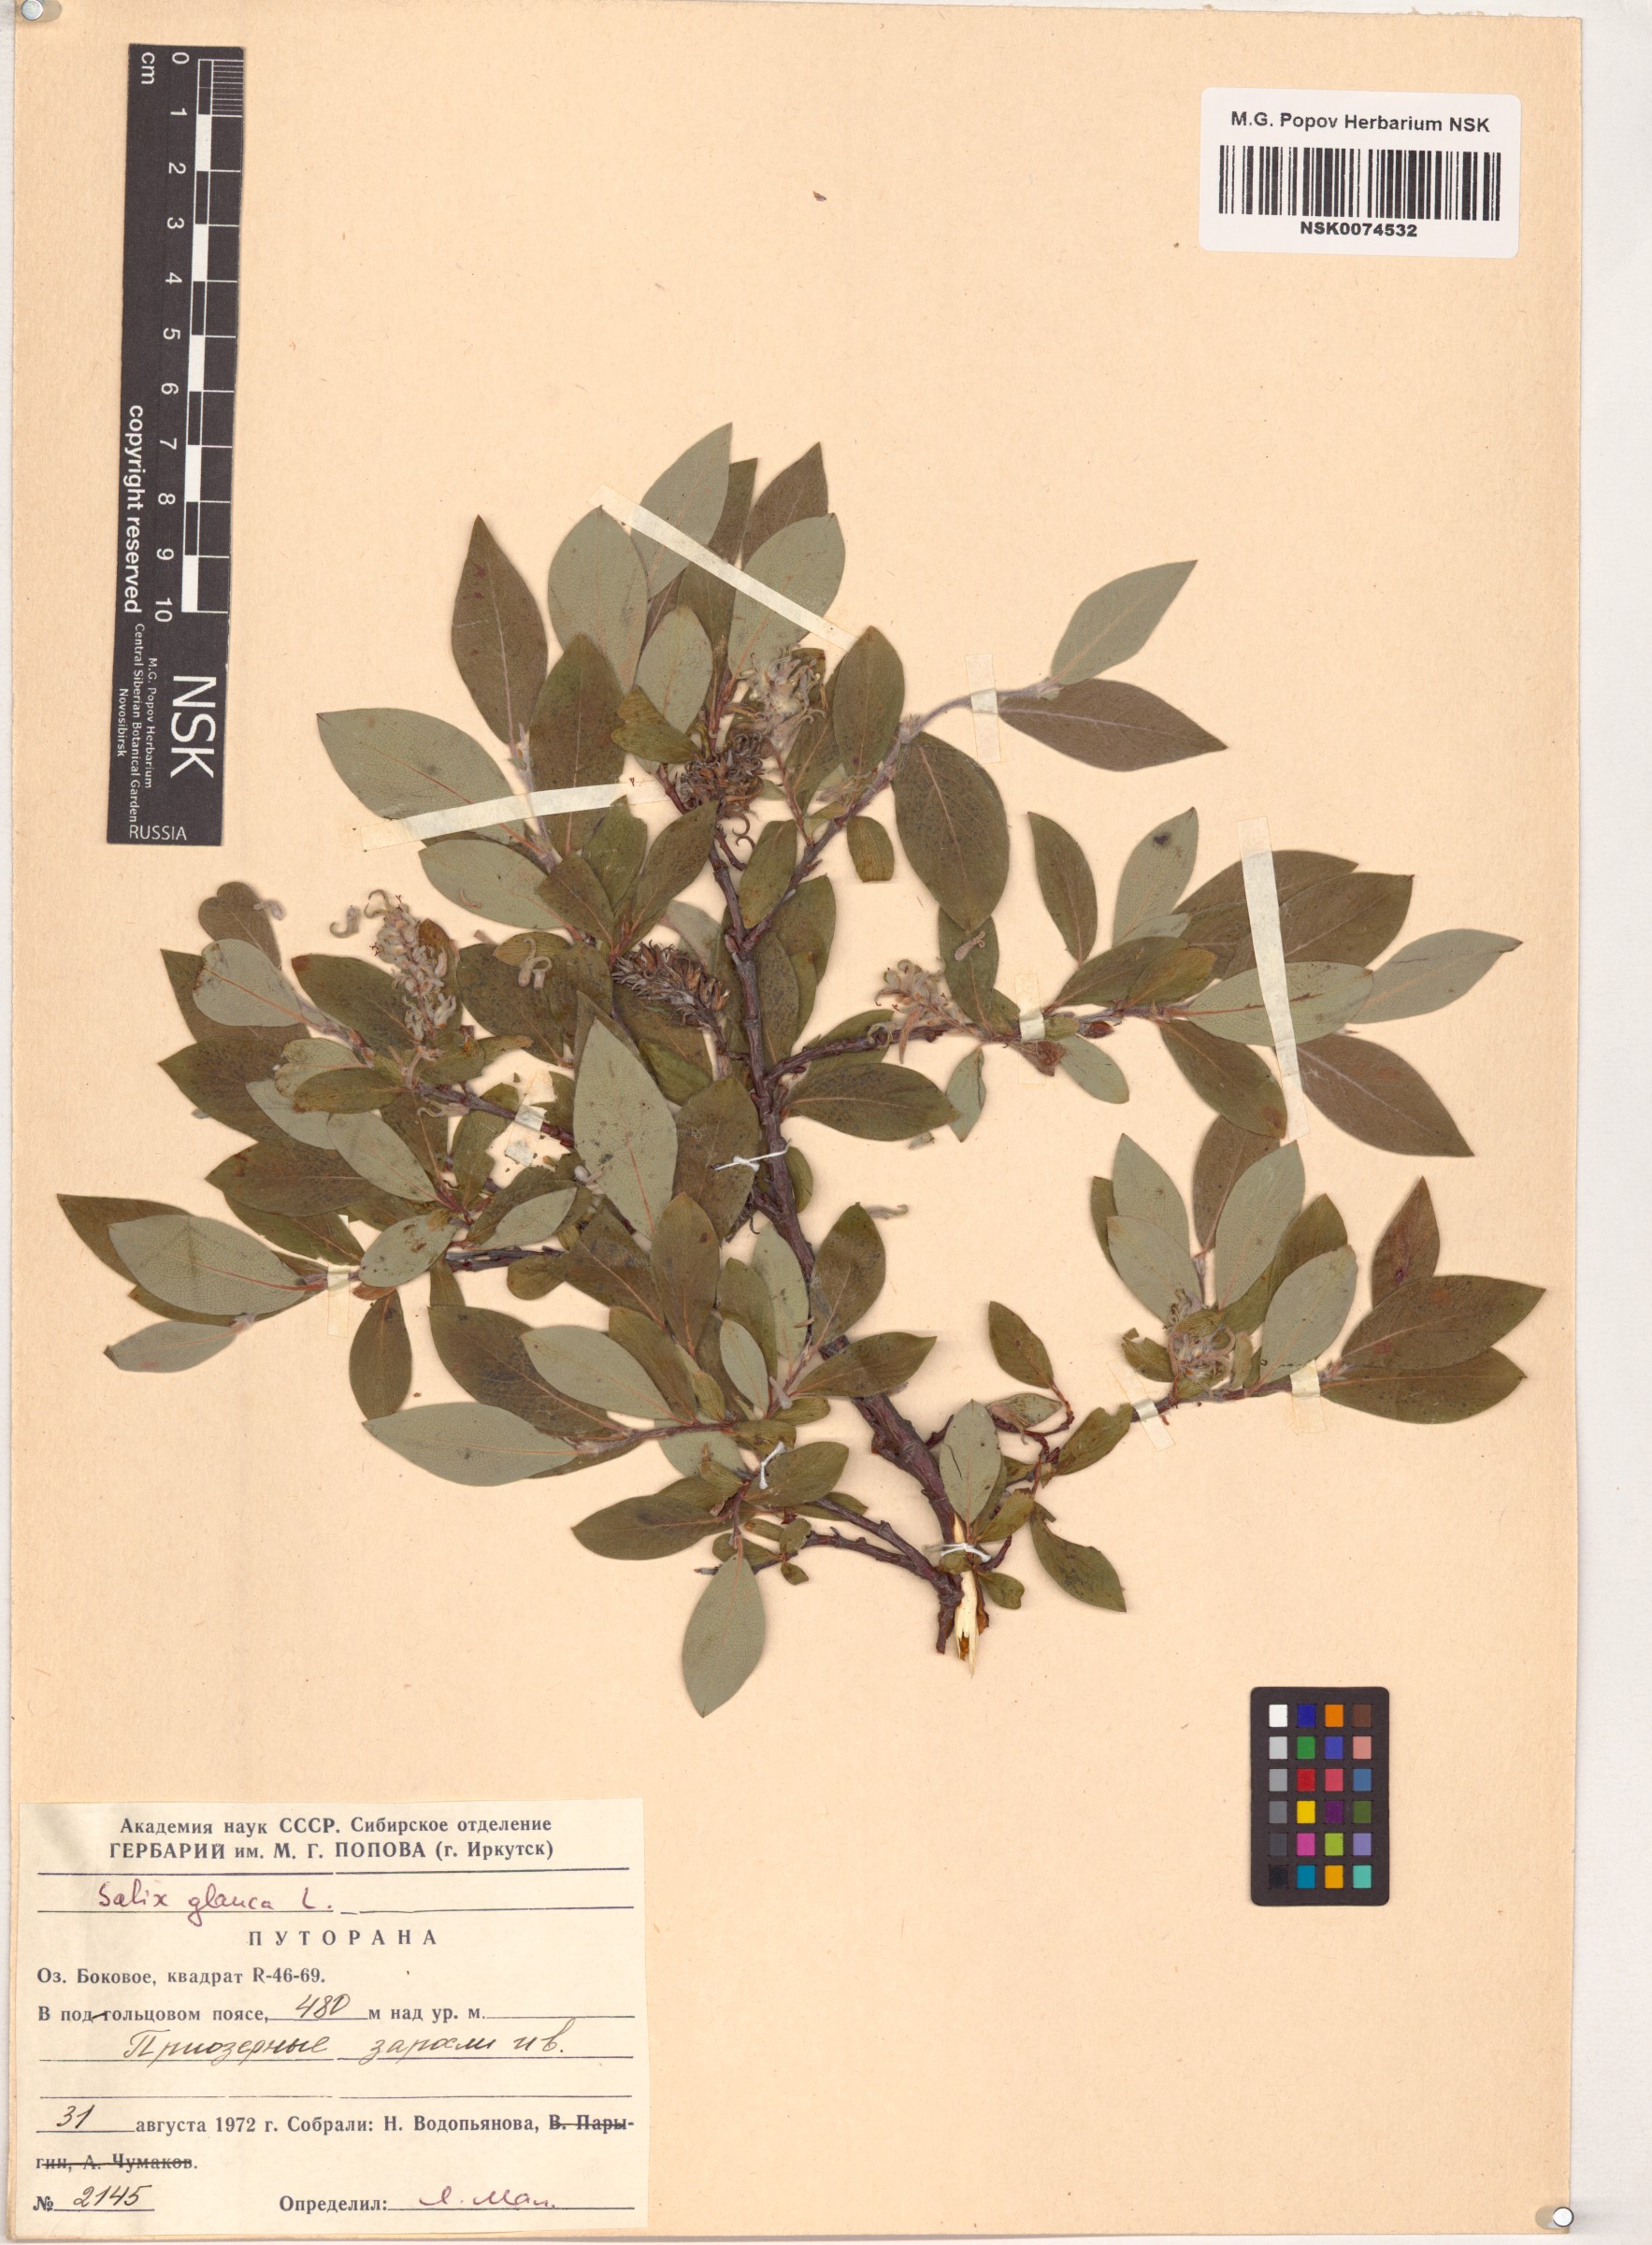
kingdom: Plantae
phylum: Tracheophyta
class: Magnoliopsida
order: Malpighiales
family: Salicaceae
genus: Salix
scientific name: Salix glauca
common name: Glaucous willow
